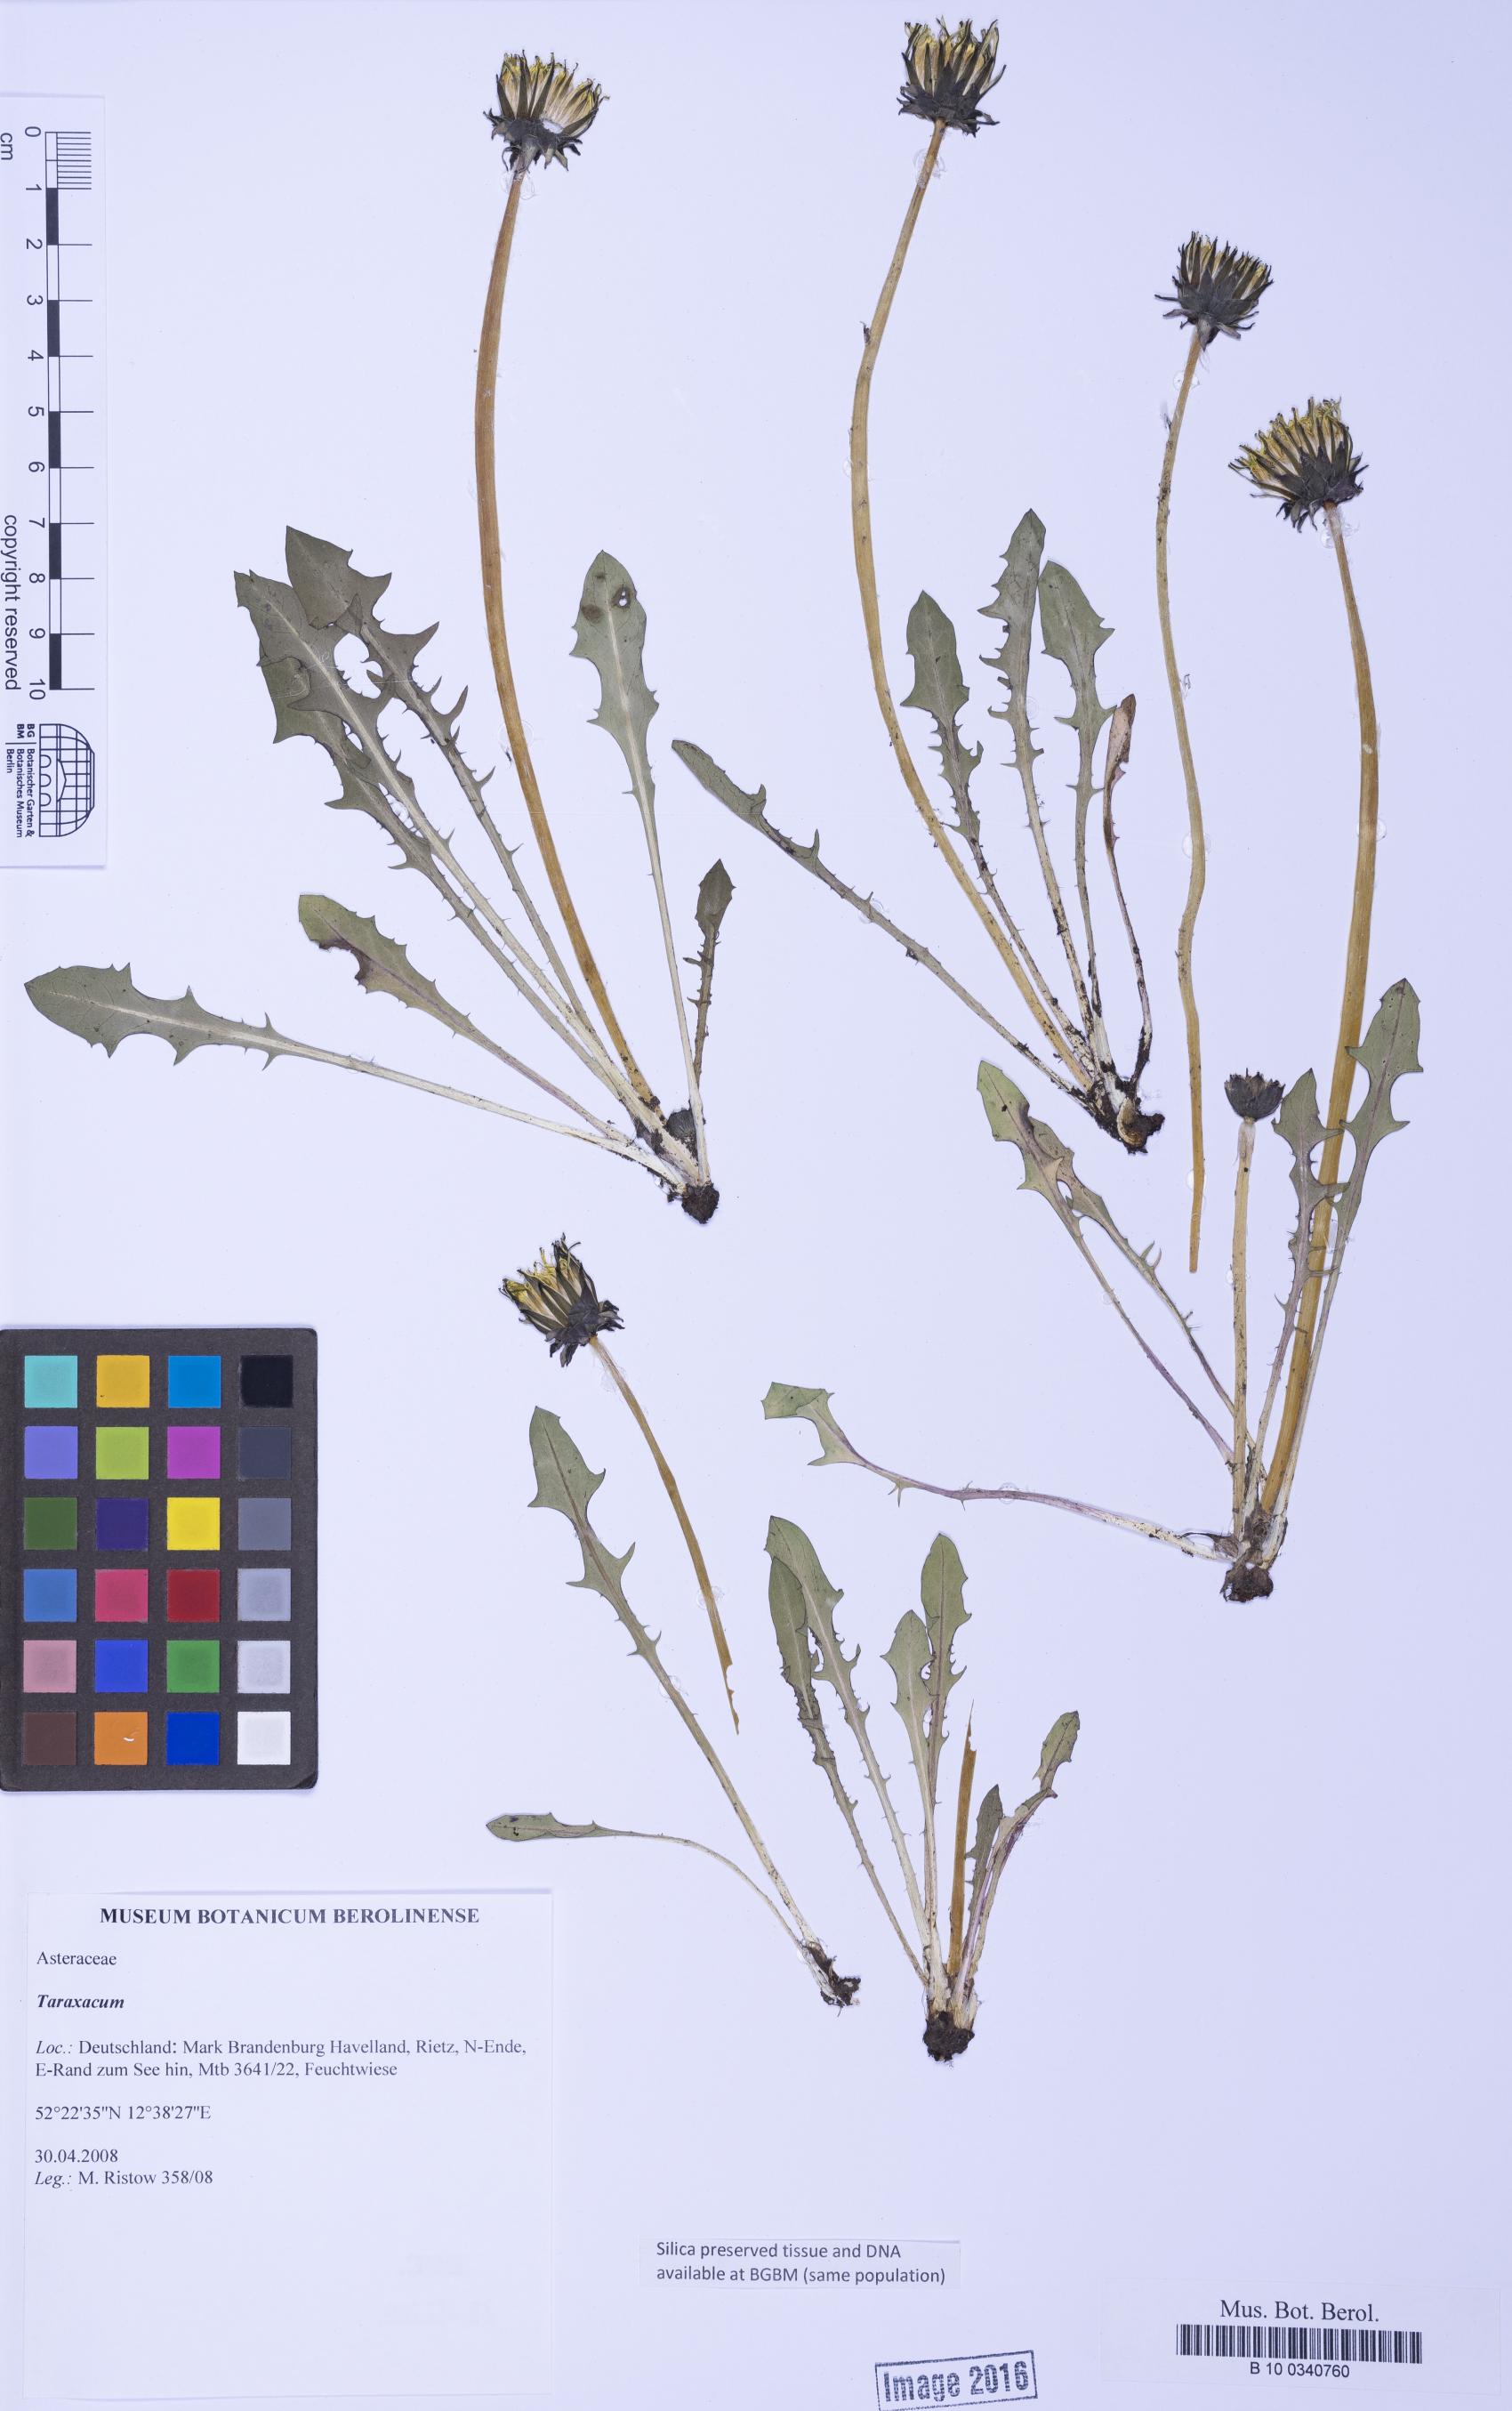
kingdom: Plantae
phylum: Tracheophyta
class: Magnoliopsida
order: Asterales
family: Asteraceae
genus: Taraxacum
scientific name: Taraxacum
